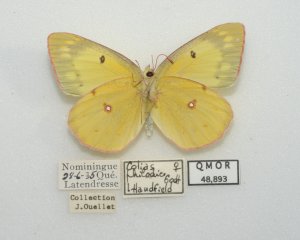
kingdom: Animalia
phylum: Arthropoda
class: Insecta
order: Lepidoptera
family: Pieridae
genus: Colias
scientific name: Colias philodice
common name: Clouded Sulphur
